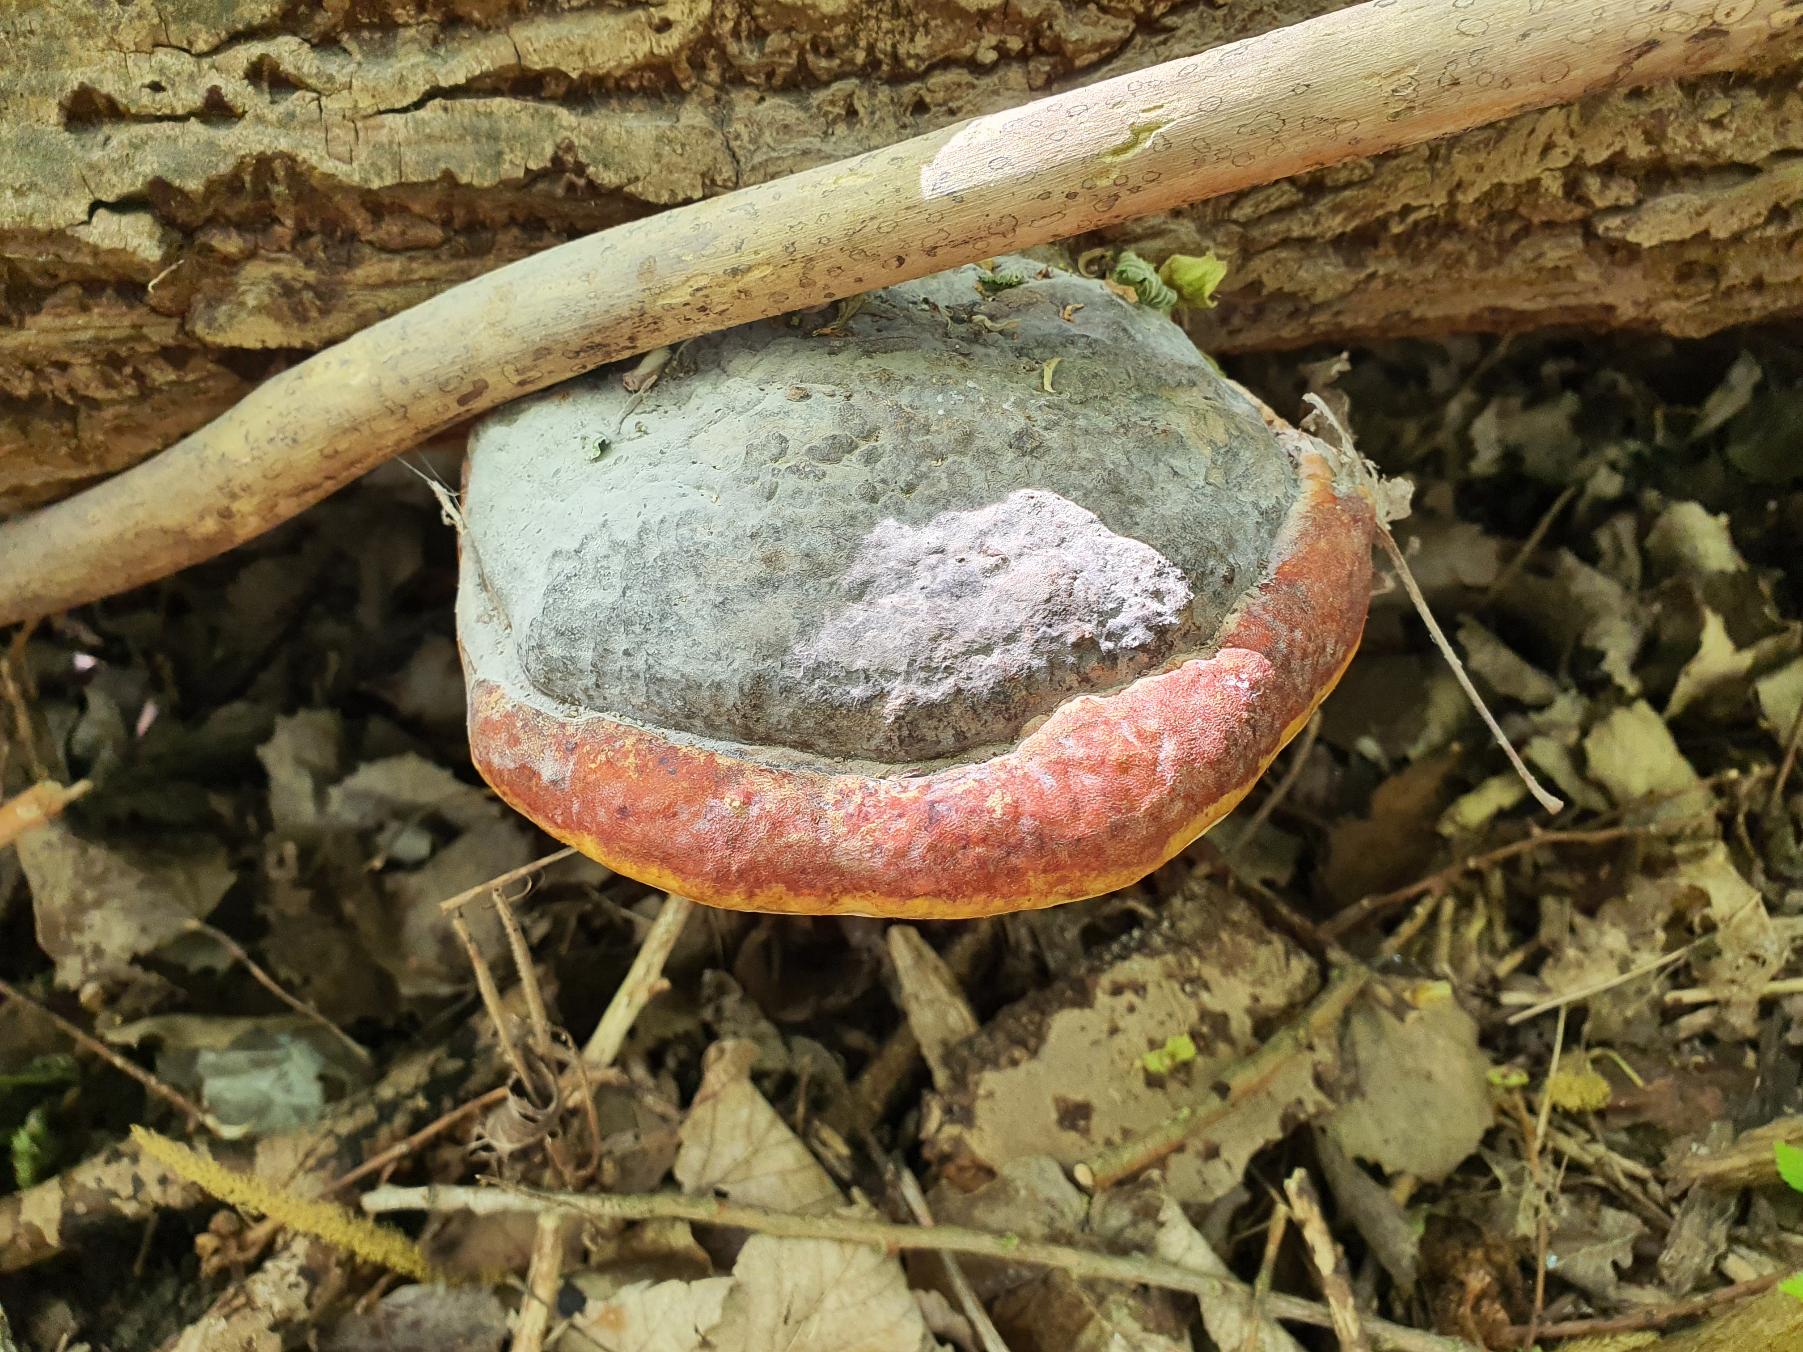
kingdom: Fungi
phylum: Basidiomycota
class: Agaricomycetes
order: Polyporales
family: Fomitopsidaceae
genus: Fomitopsis
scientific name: Fomitopsis pinicola
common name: Randbæltet hovporesvamp
